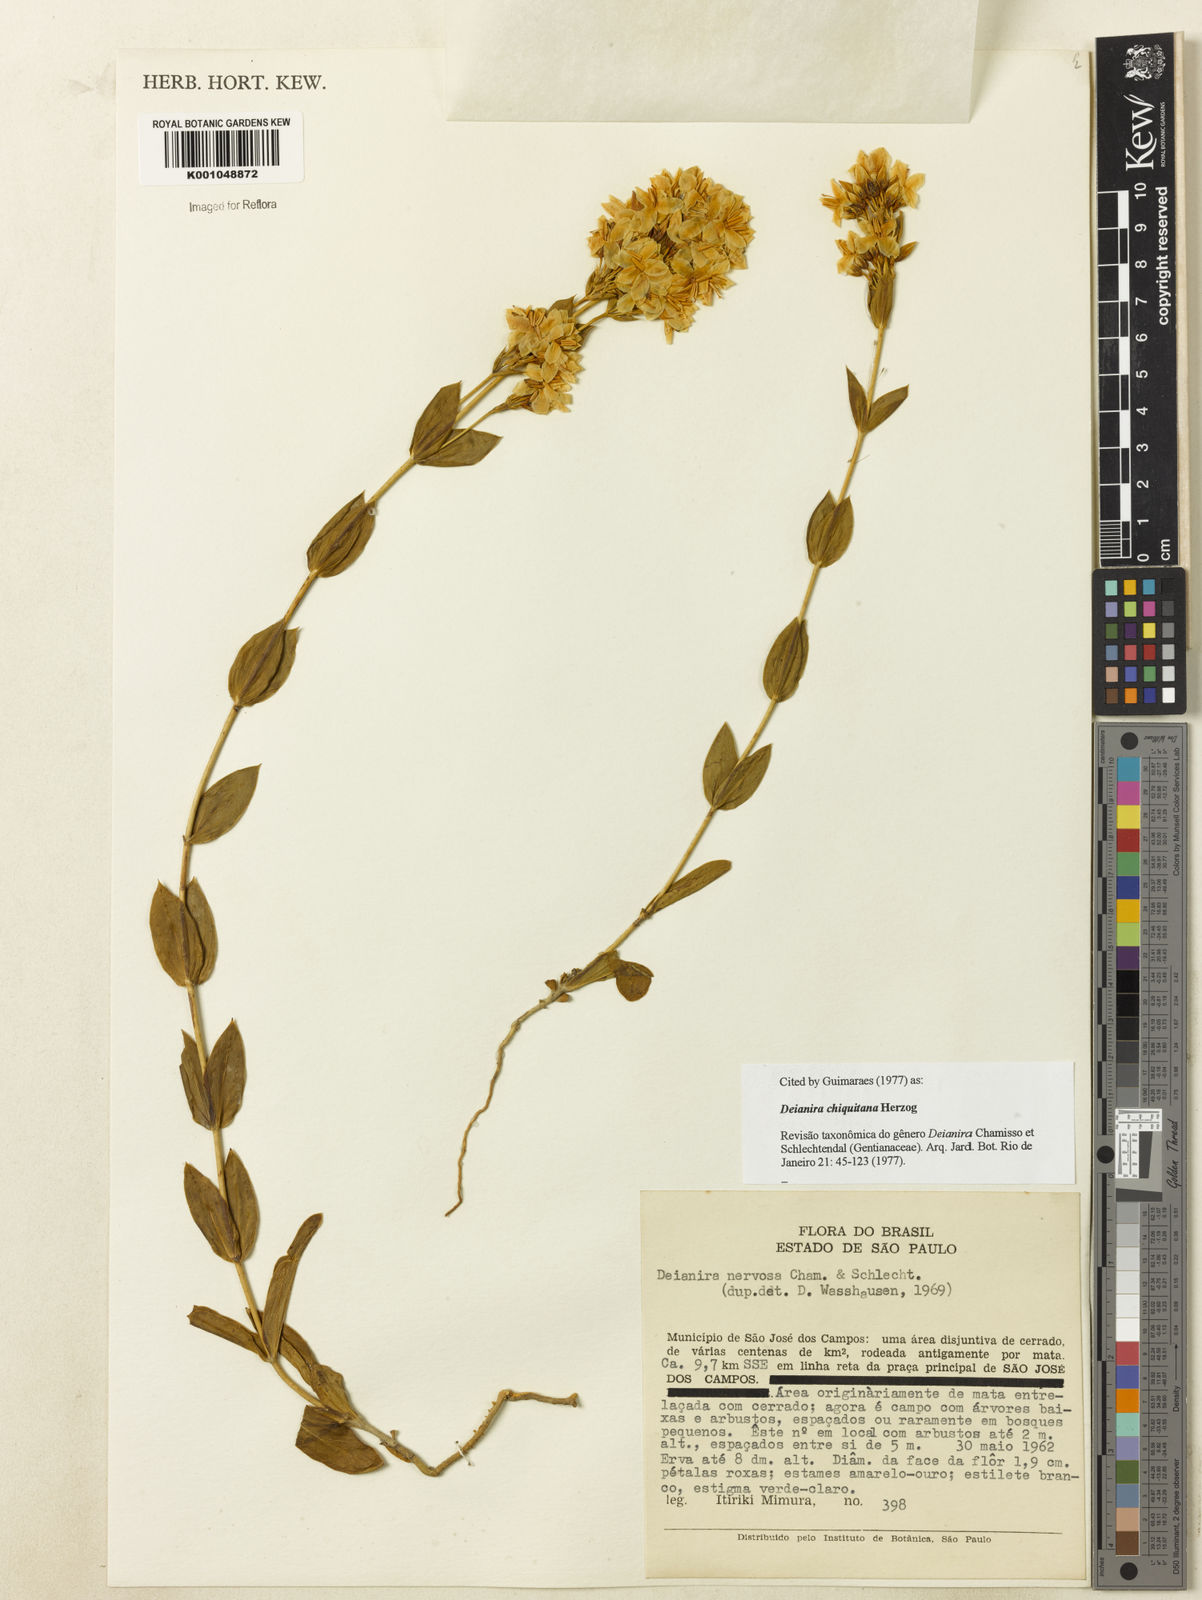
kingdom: Plantae
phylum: Tracheophyta
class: Magnoliopsida
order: Gentianales
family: Gentianaceae
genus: Deianira
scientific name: Deianira chiquitana
